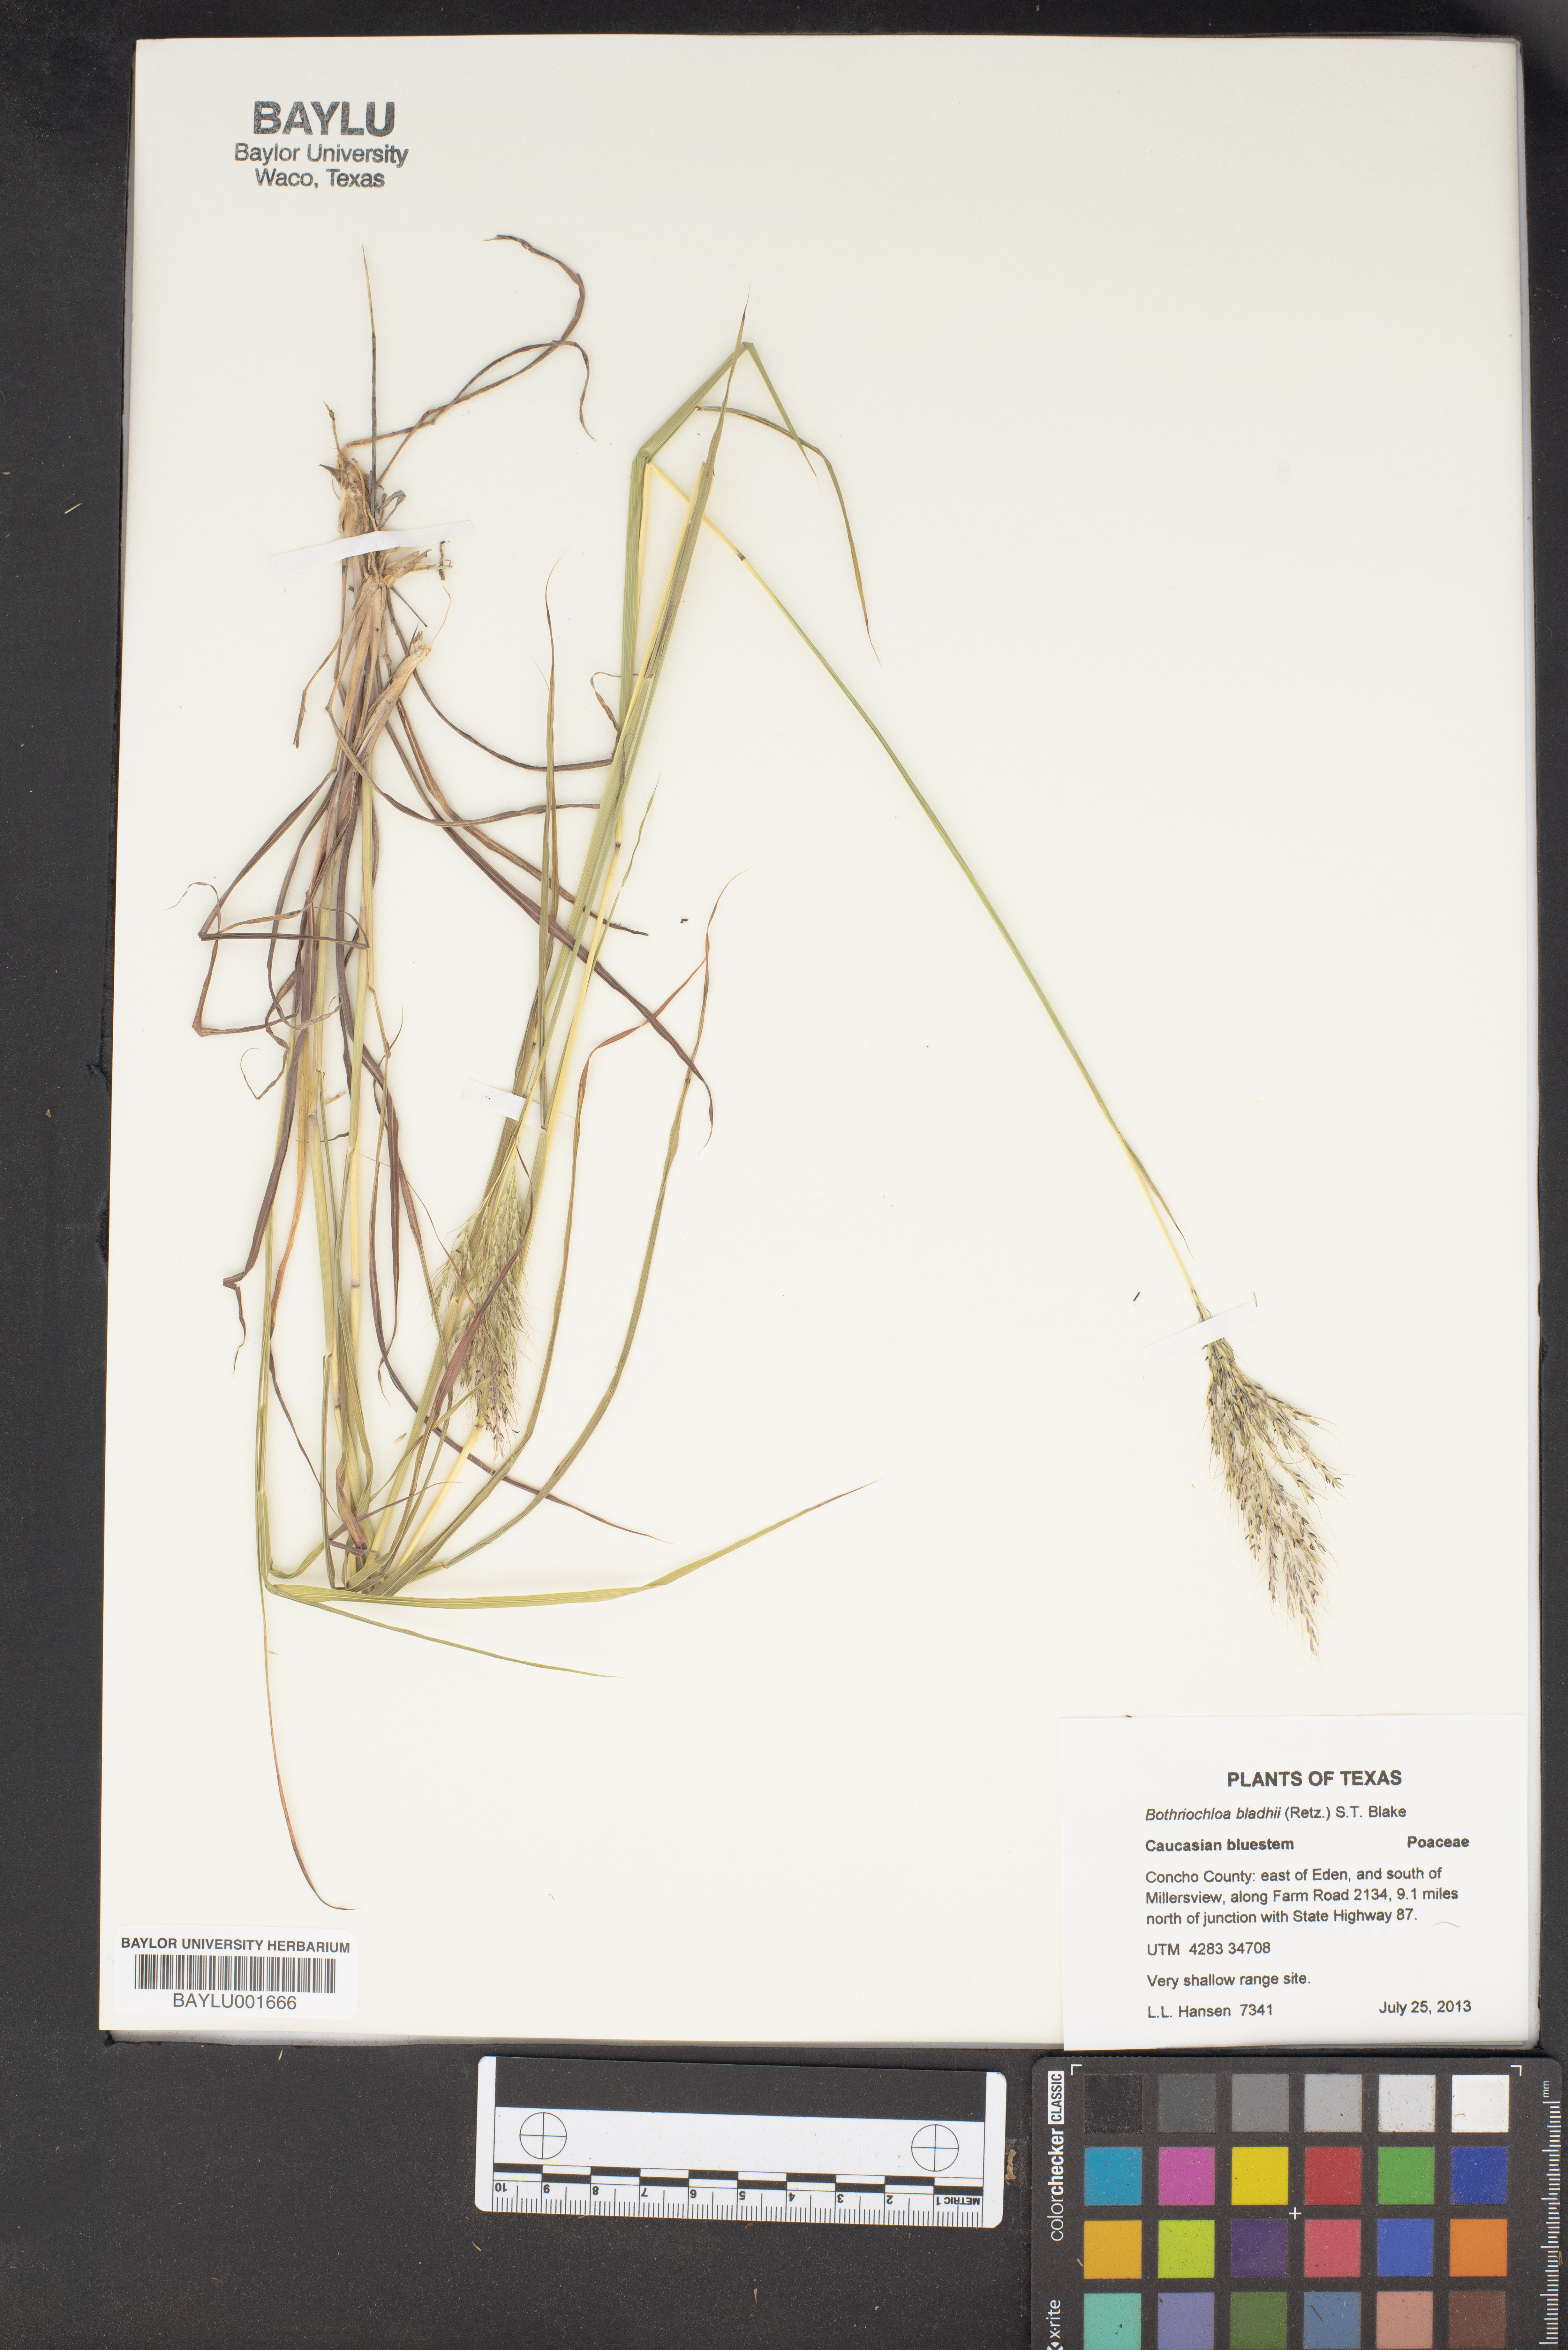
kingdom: Plantae
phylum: Tracheophyta
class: Liliopsida
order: Poales
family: Poaceae
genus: Bothriochloa
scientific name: Bothriochloa bladhii
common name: Caucasian bluestem
